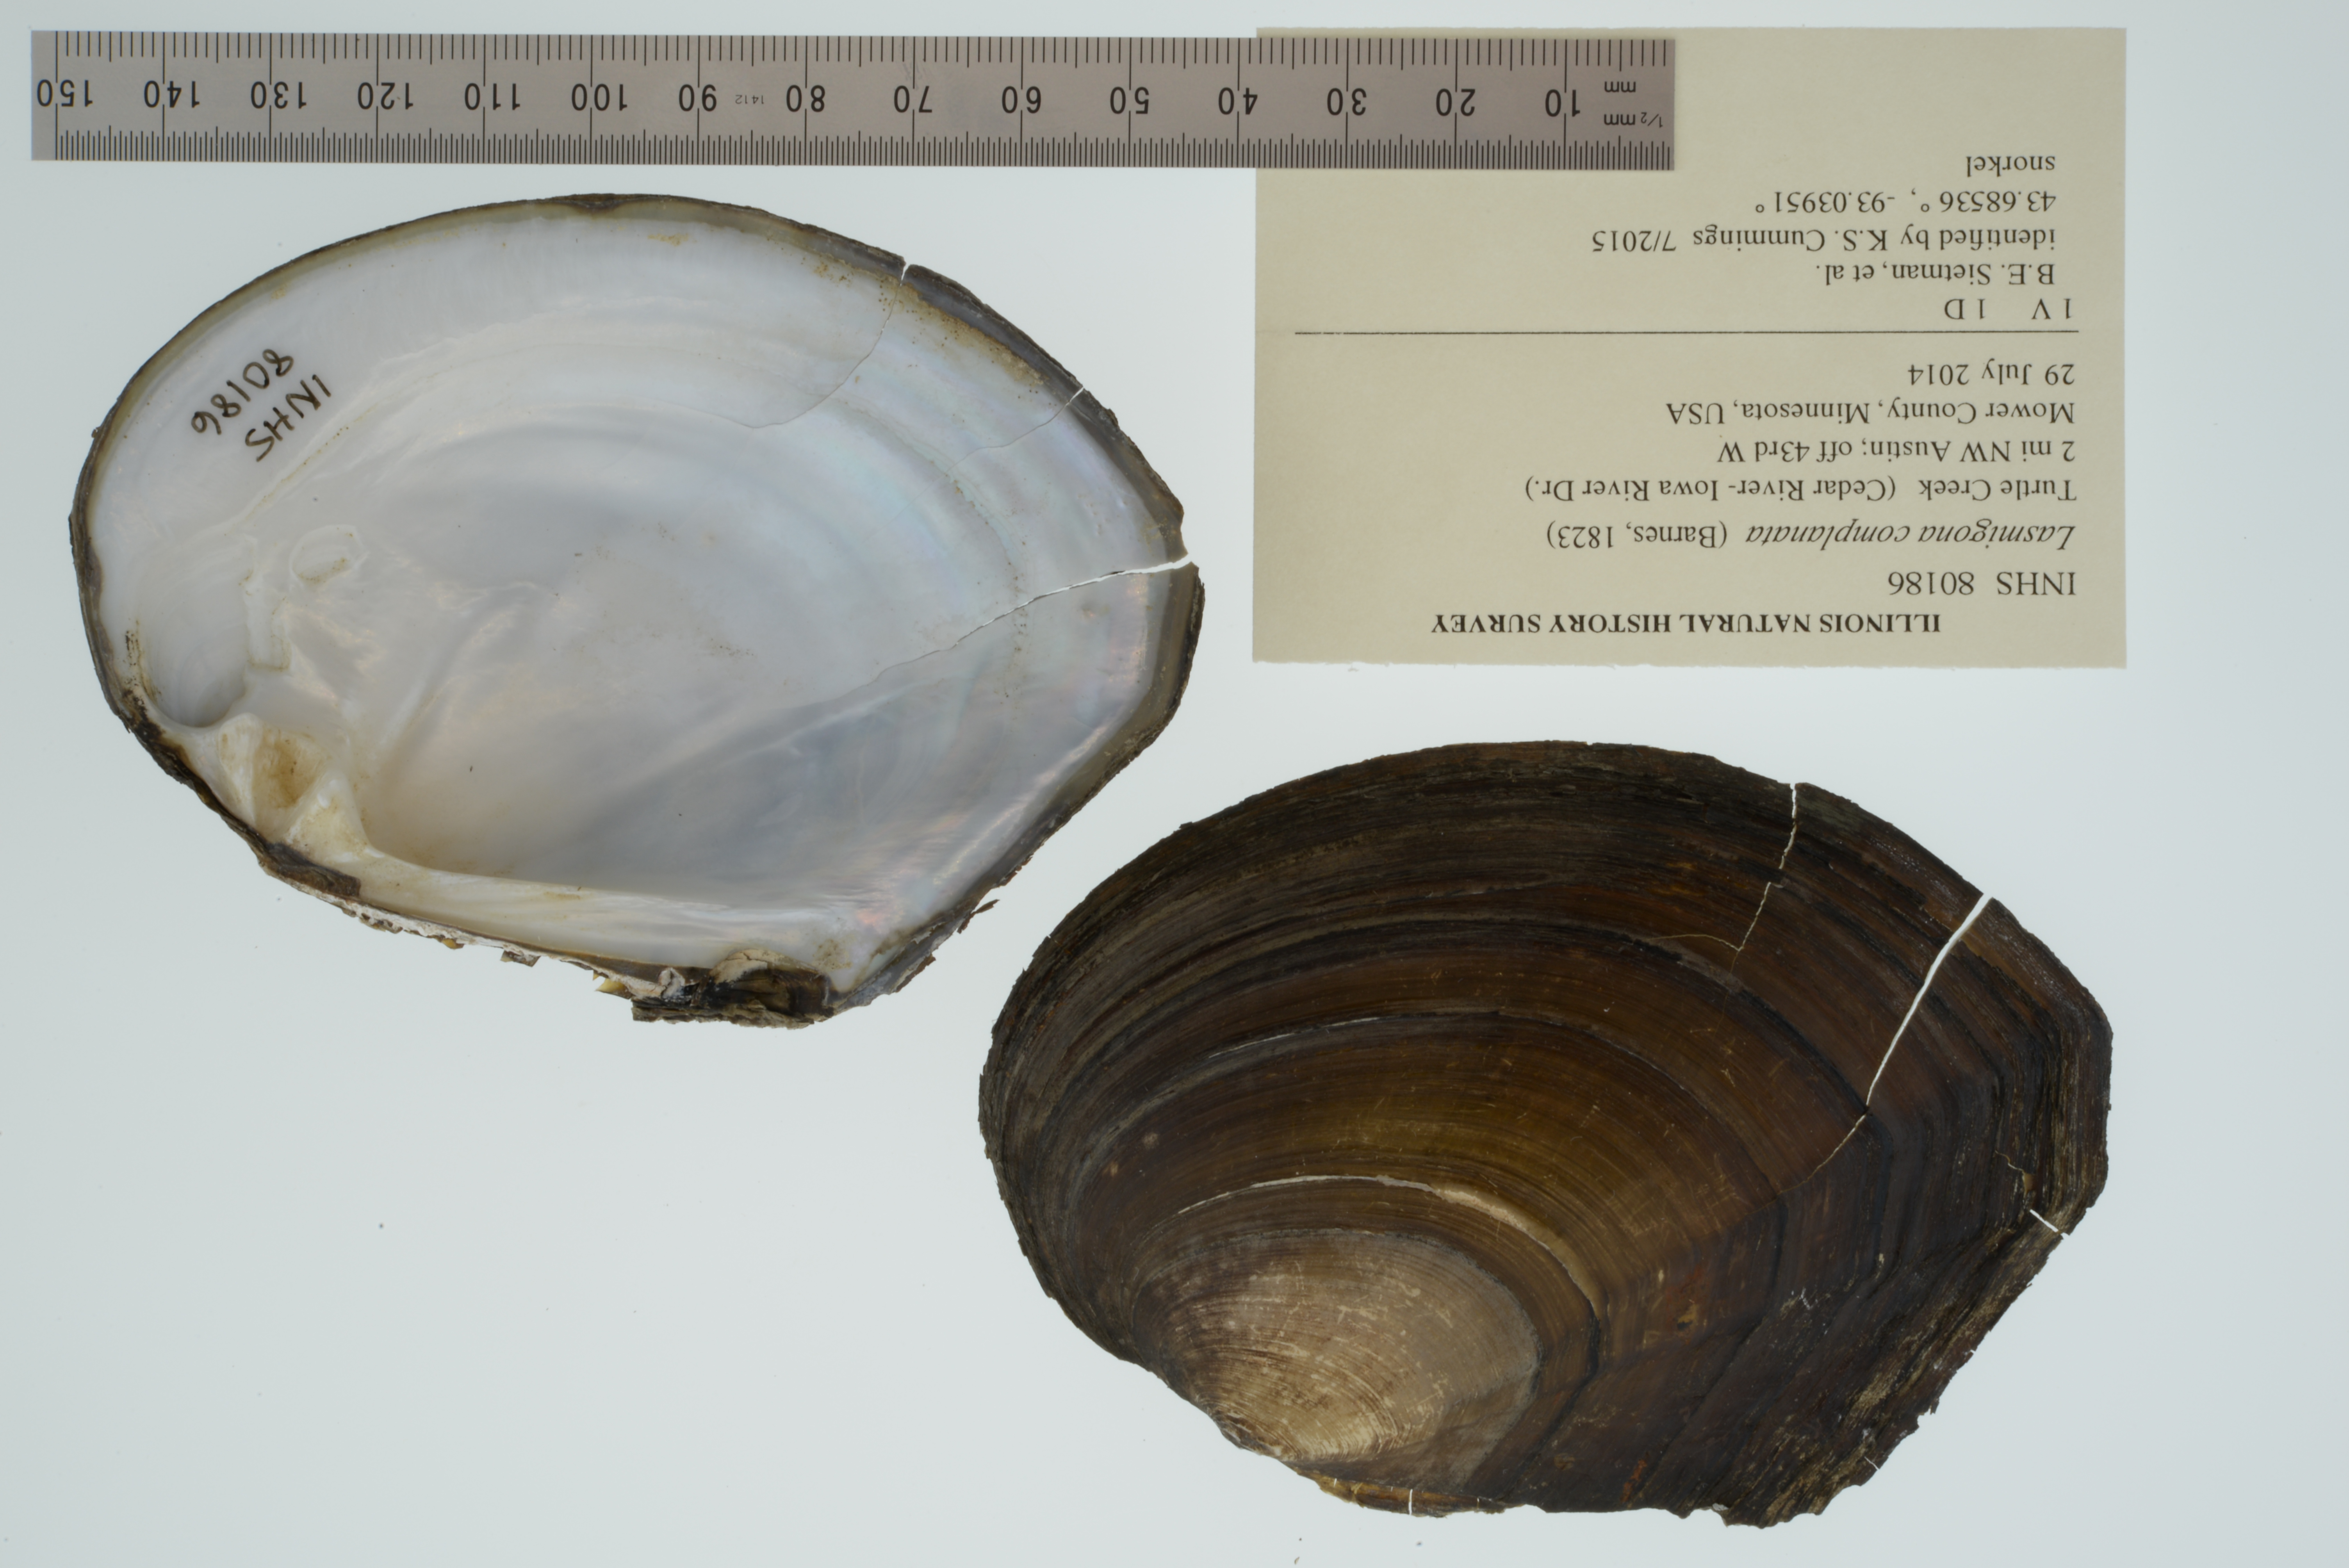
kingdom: Animalia
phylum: Mollusca
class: Bivalvia
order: Unionida
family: Unionidae
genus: Lasmigona
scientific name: Lasmigona complanata
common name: White heelsplitter
